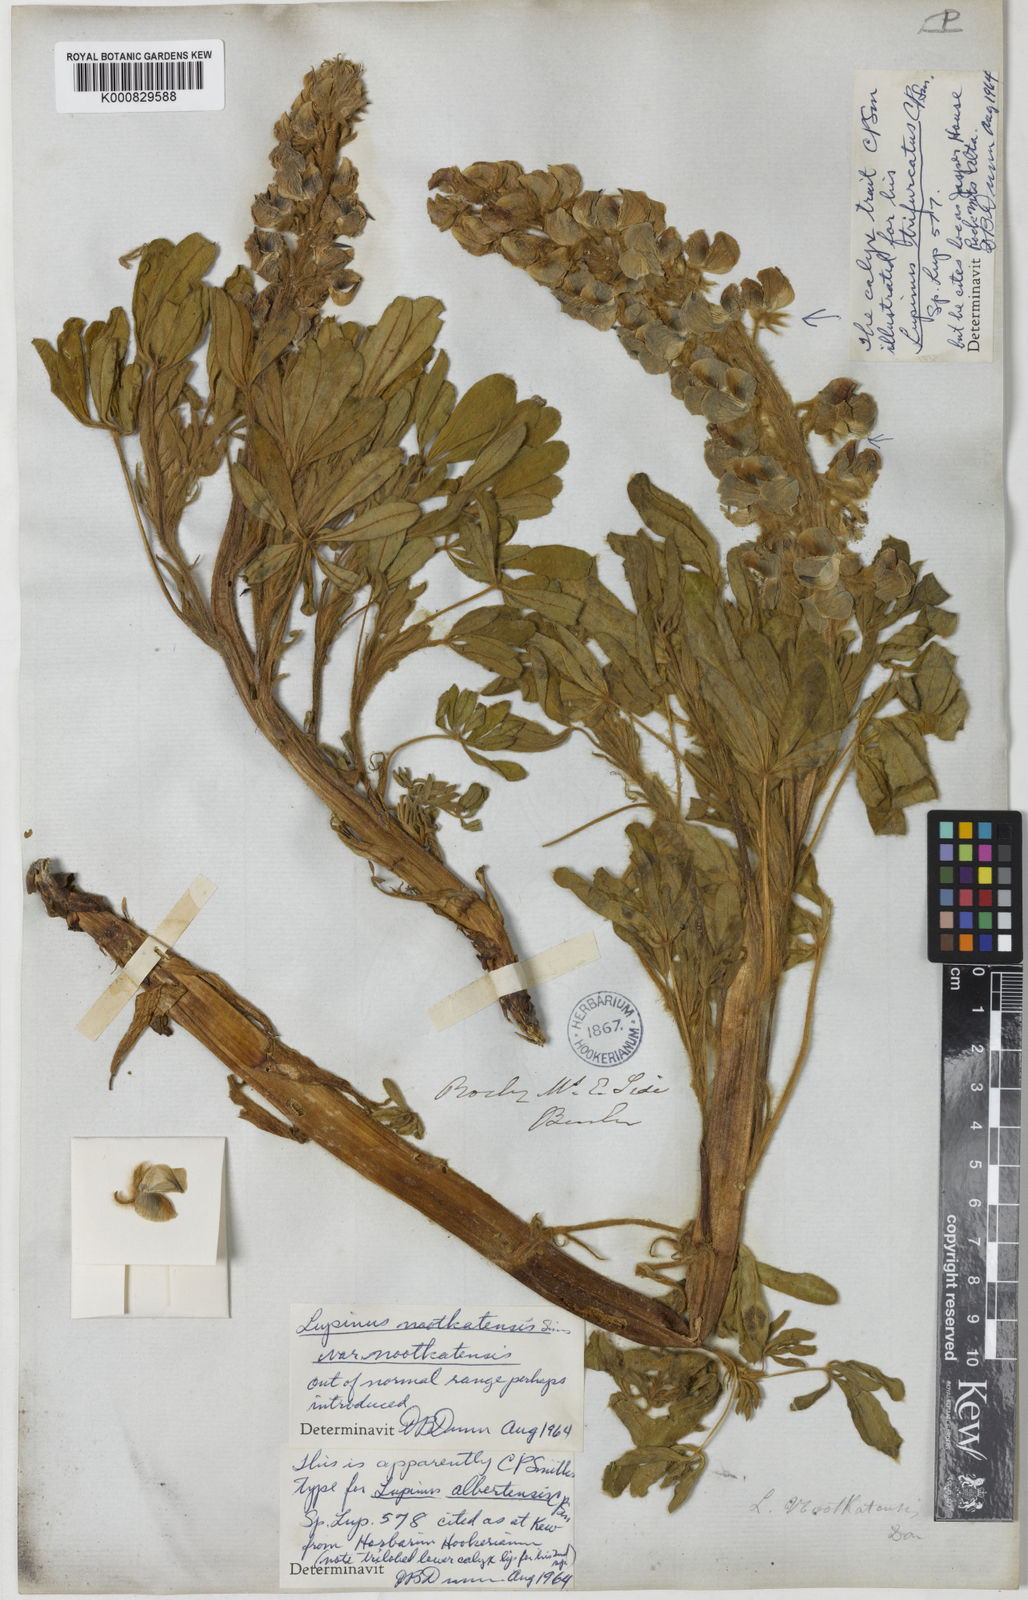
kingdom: Plantae
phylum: Tracheophyta
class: Magnoliopsida
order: Fabales
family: Fabaceae
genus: Lupinus
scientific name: Lupinus nootkatensis
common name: Nootka lupine
